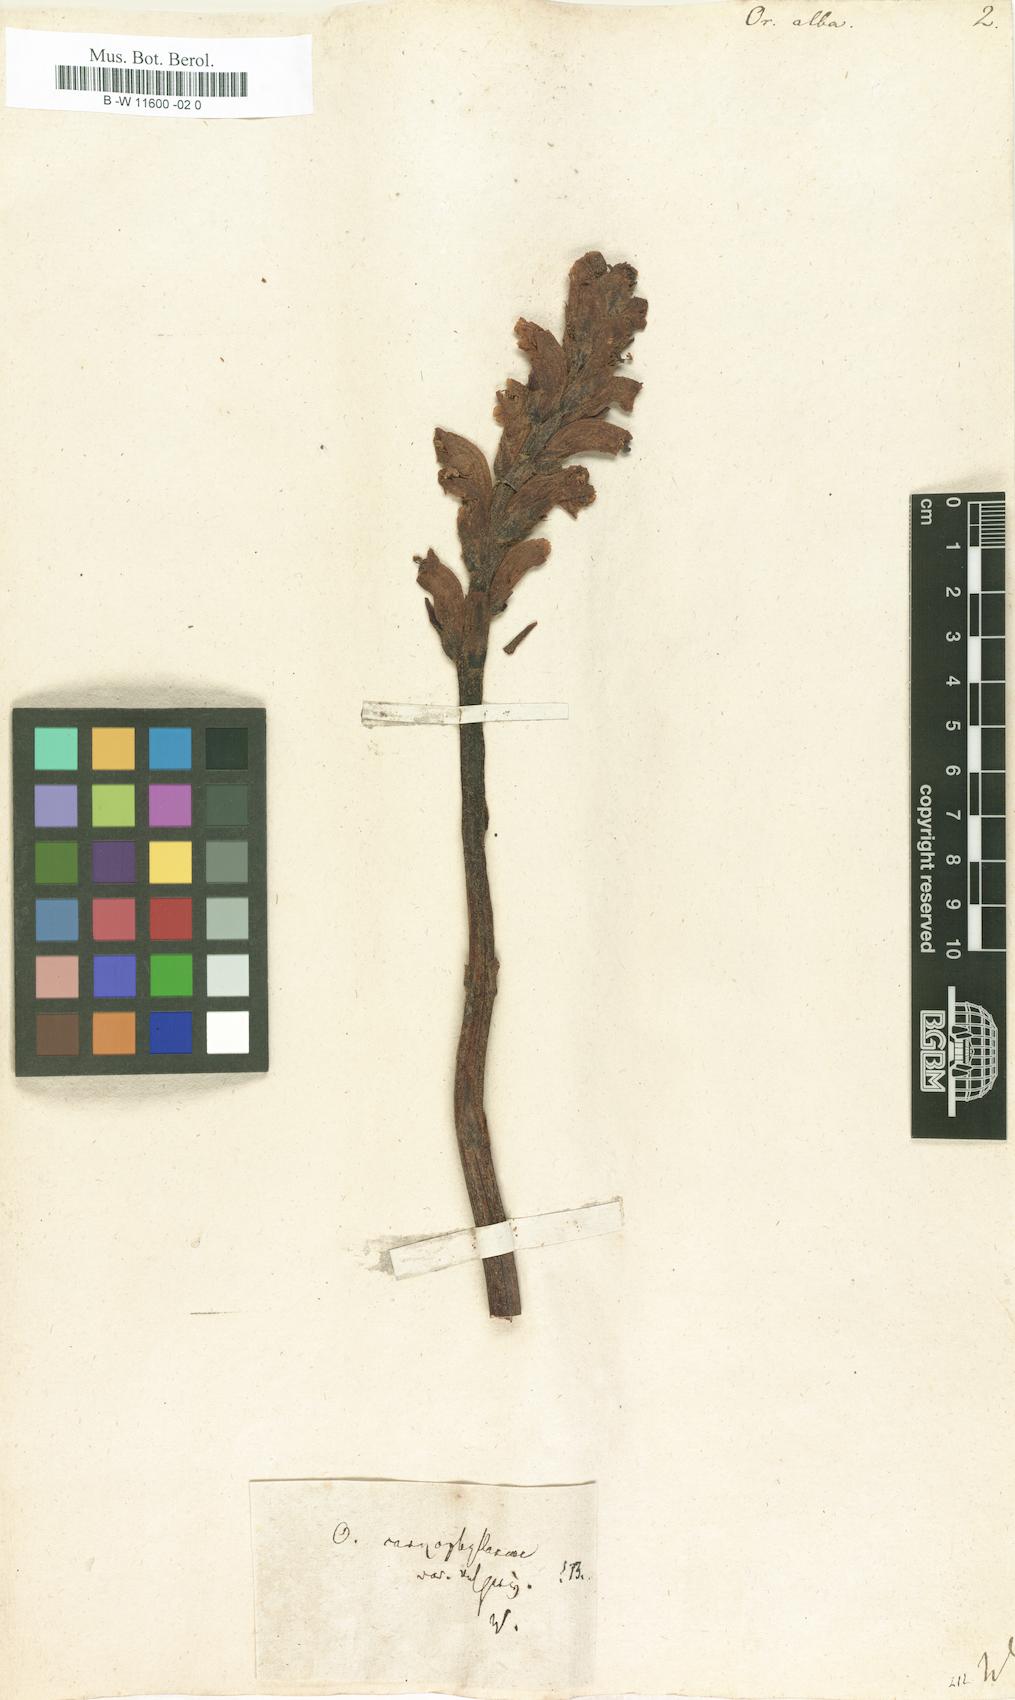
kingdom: Plantae
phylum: Tracheophyta
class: Magnoliopsida
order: Lamiales
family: Orobanchaceae
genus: Orobanche
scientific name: Orobanche alba
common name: Thyme broomrape
